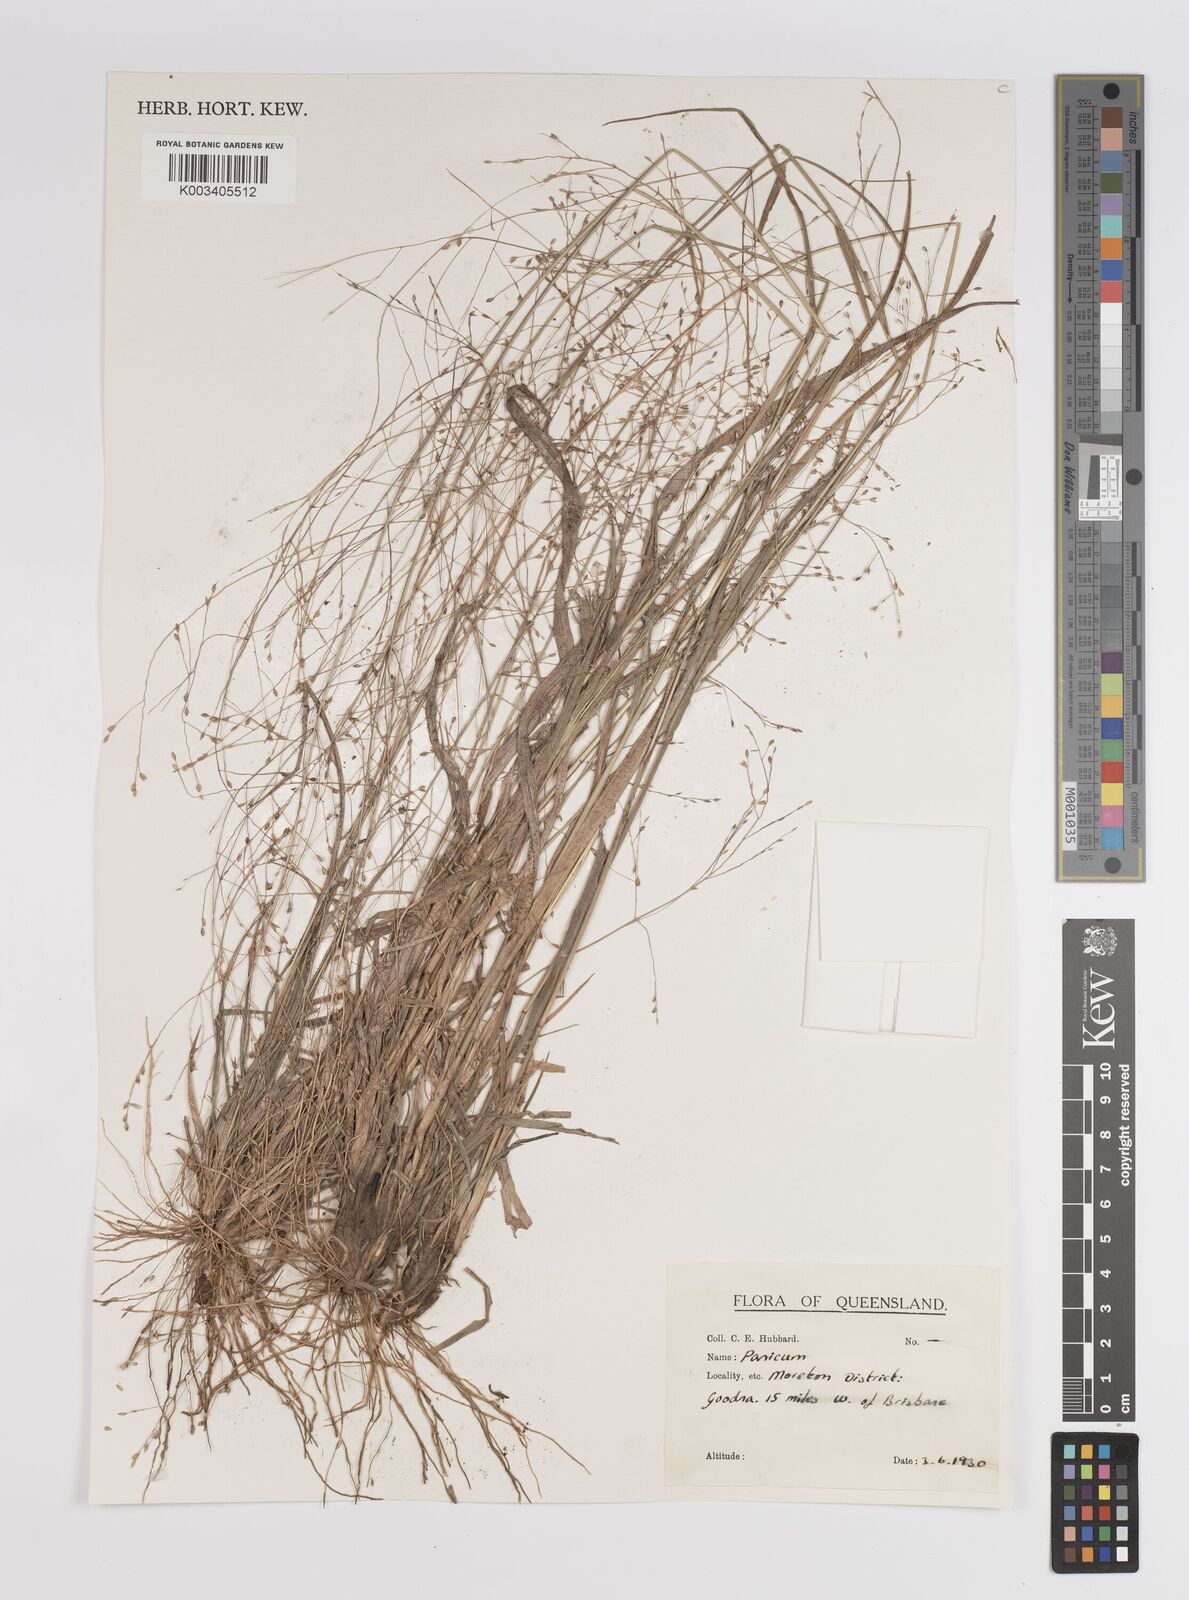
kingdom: Plantae
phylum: Tracheophyta
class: Liliopsida
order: Poales
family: Poaceae
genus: Panicum
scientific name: Panicum
